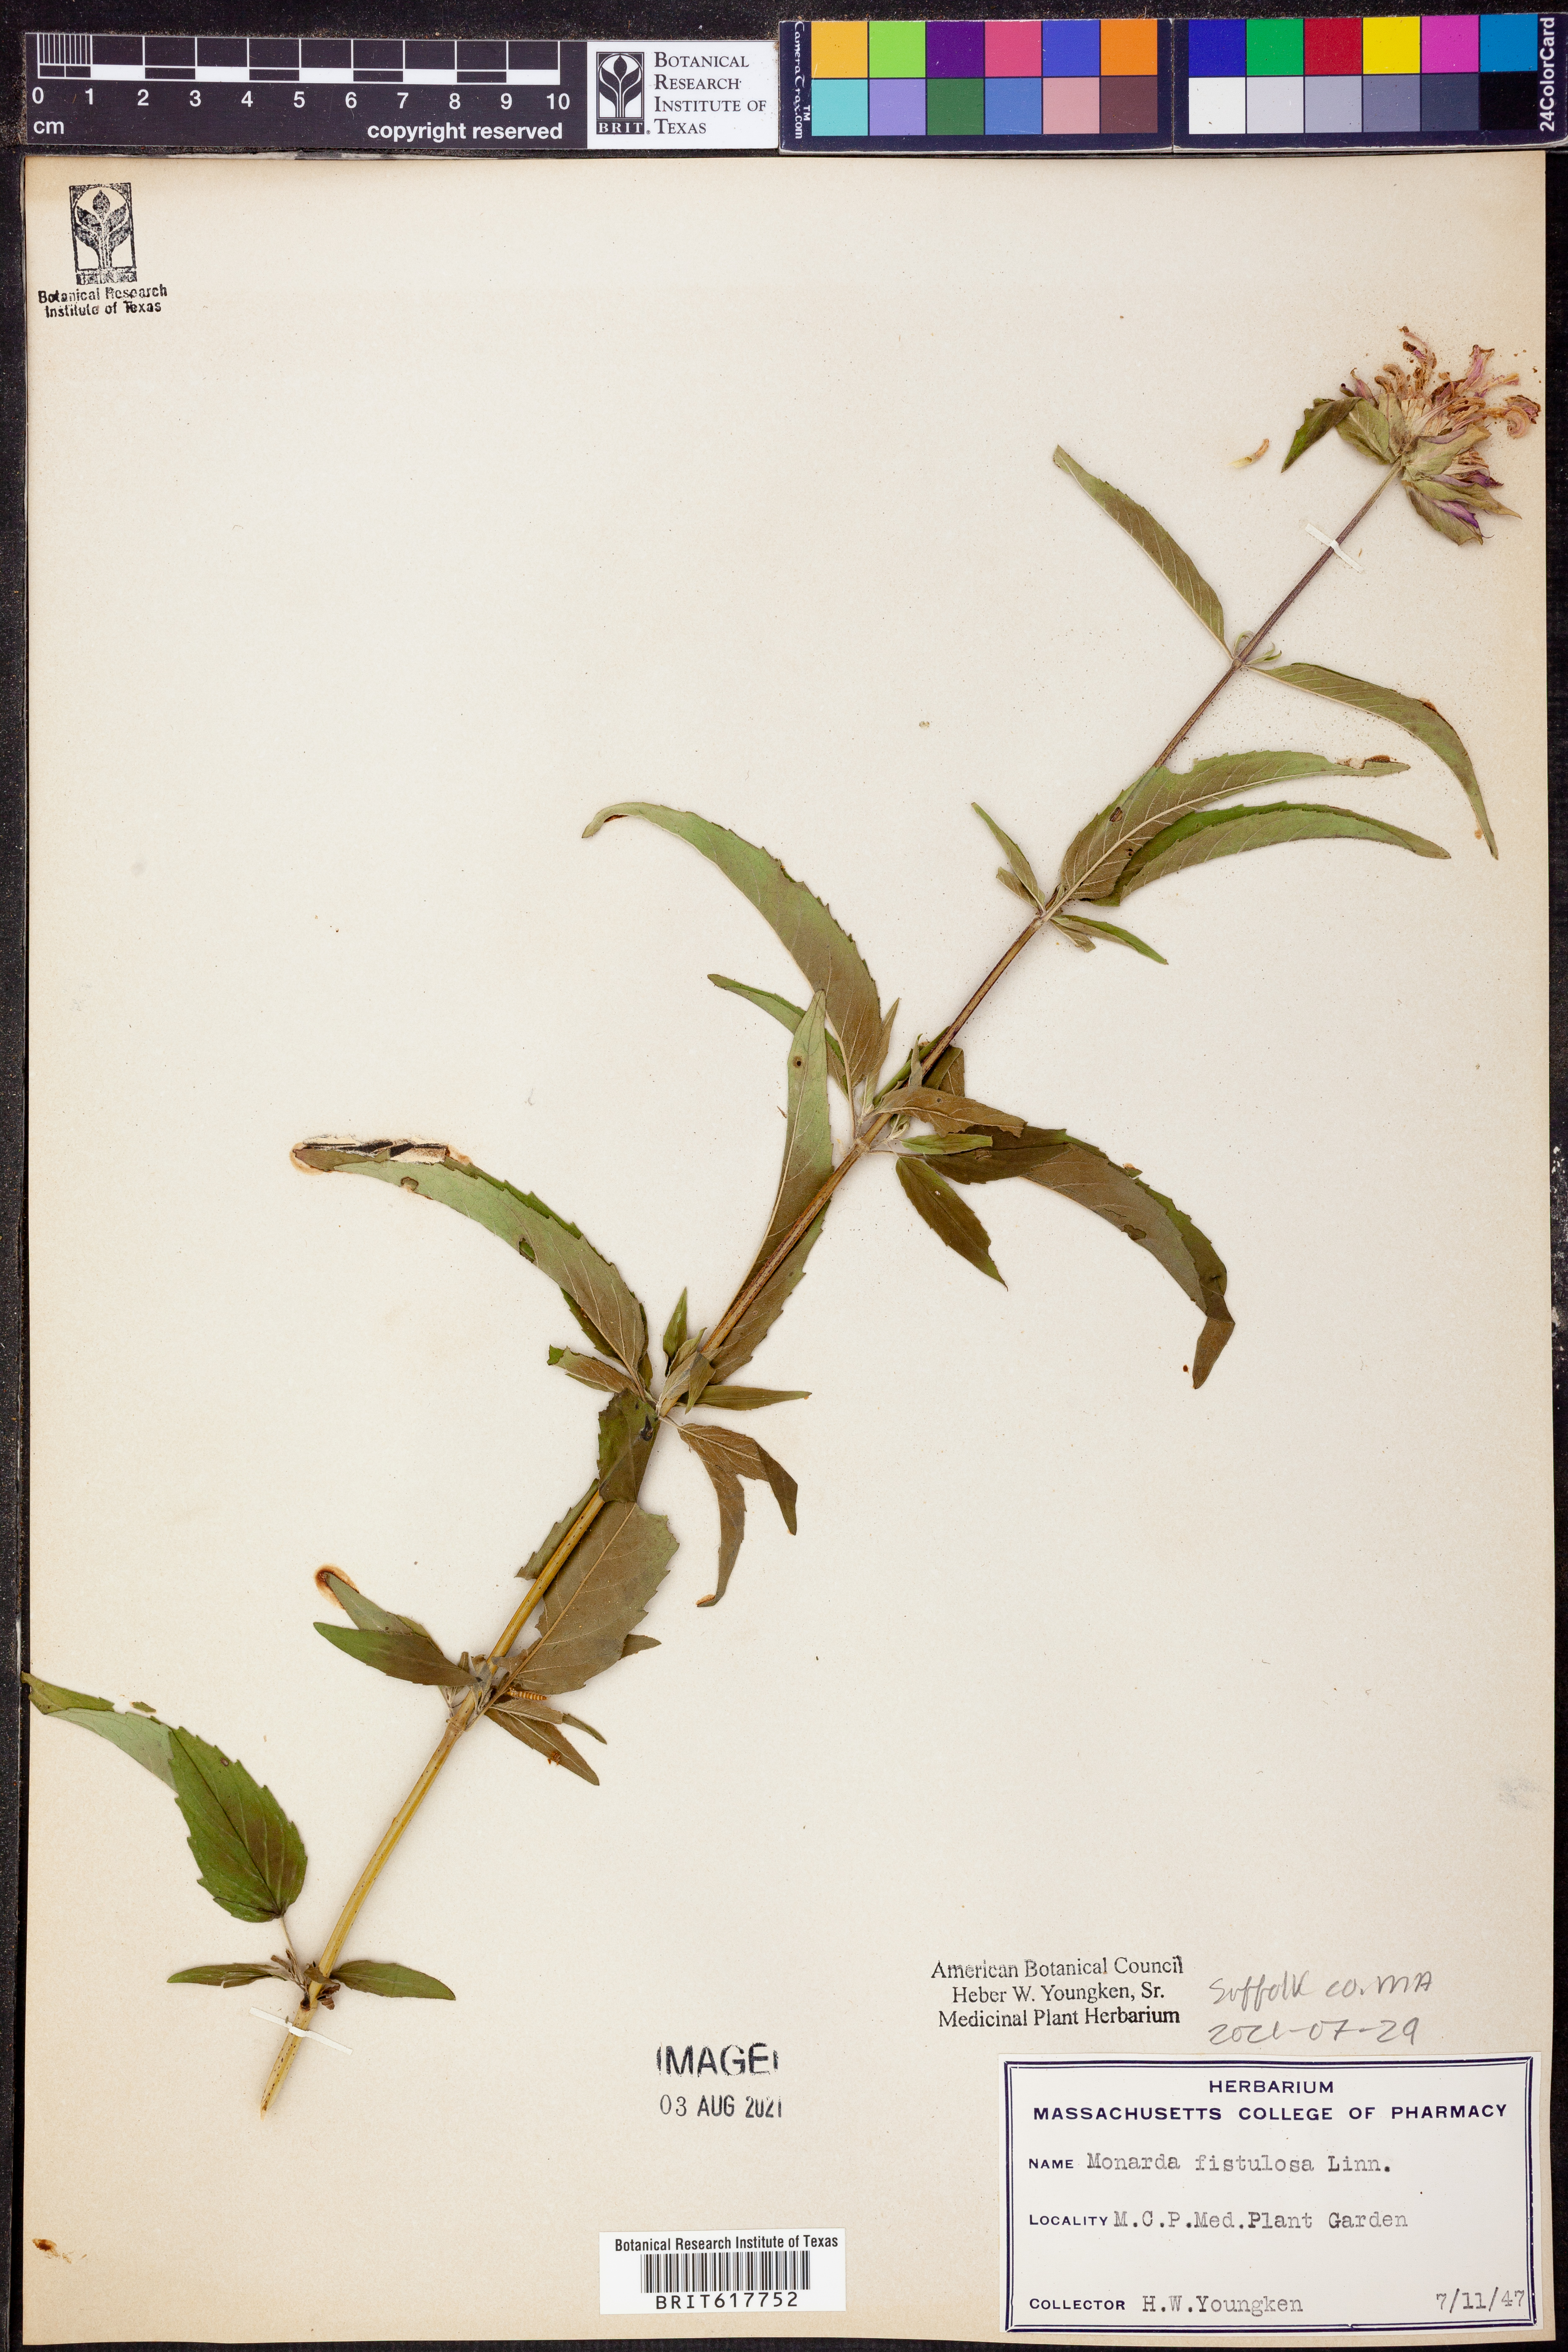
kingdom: Plantae
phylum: Tracheophyta
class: Magnoliopsida
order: Lamiales
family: Lamiaceae
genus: Monarda
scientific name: Monarda fistulosa
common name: Purple beebalm
